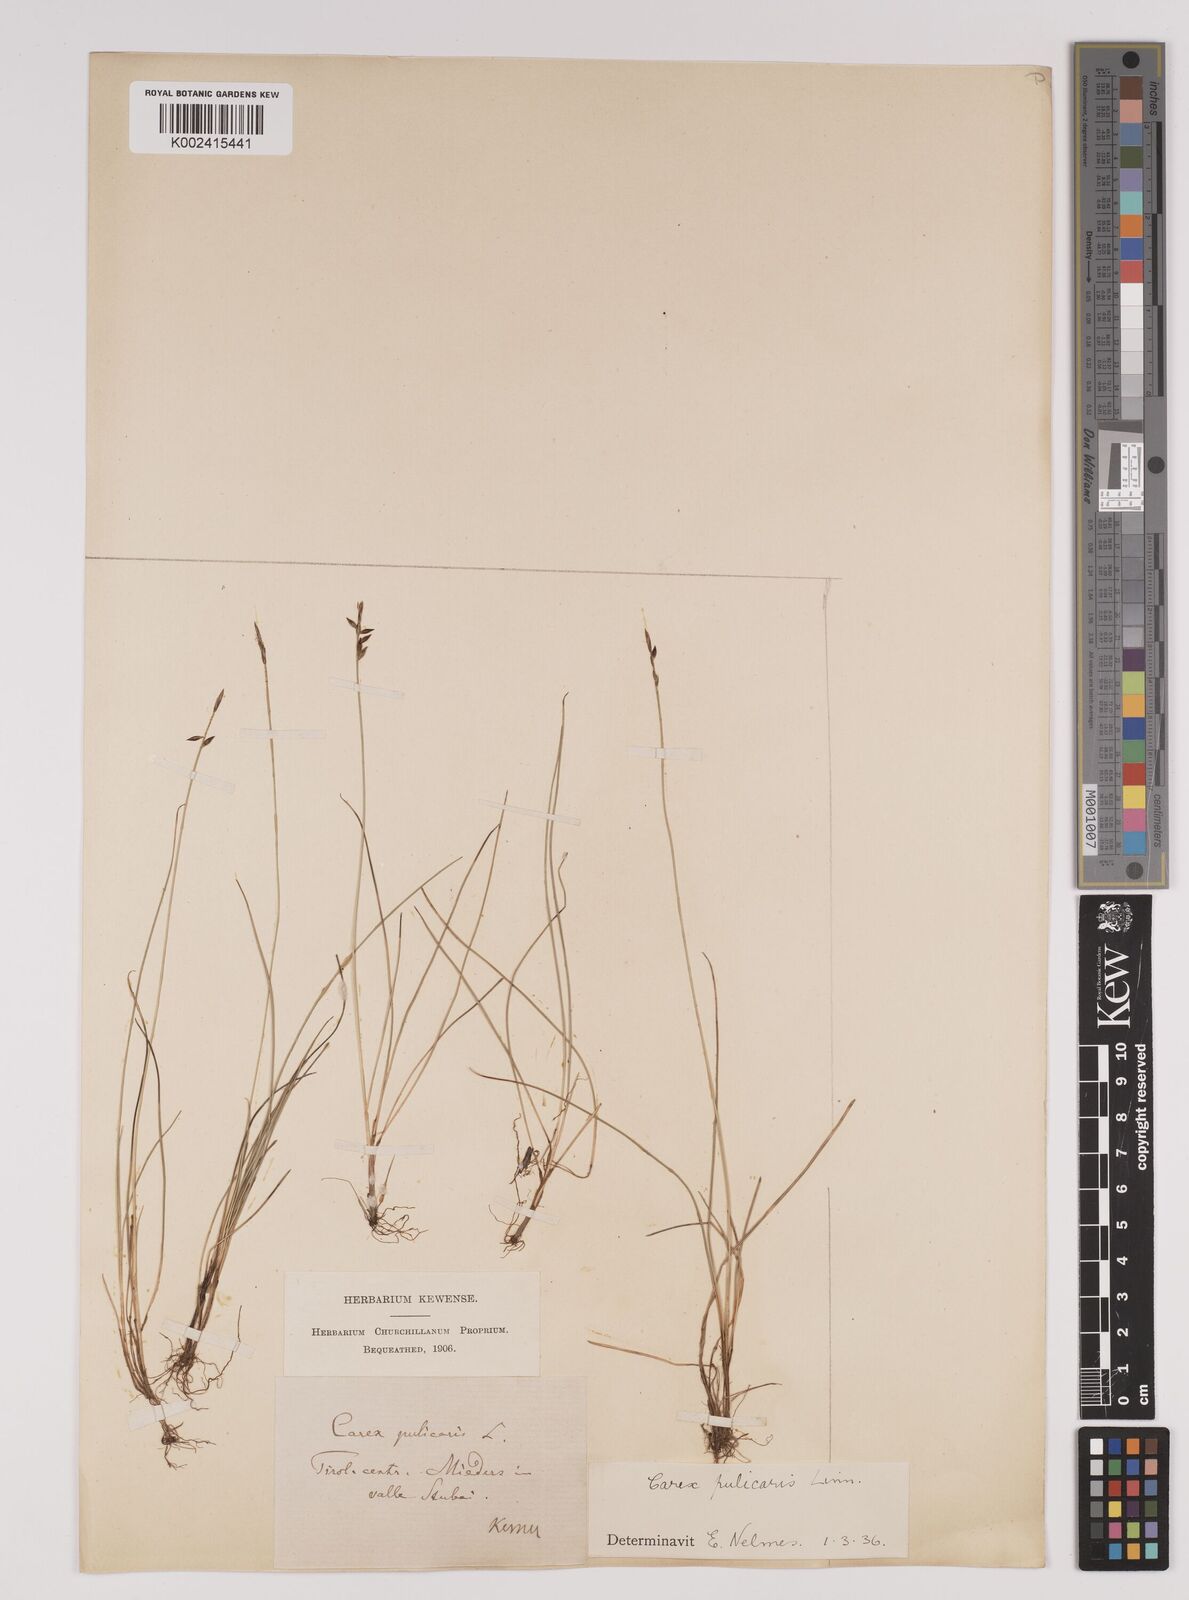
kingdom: Plantae
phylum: Tracheophyta
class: Liliopsida
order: Poales
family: Cyperaceae
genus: Carex
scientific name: Carex pulicaris
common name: Flea sedge
